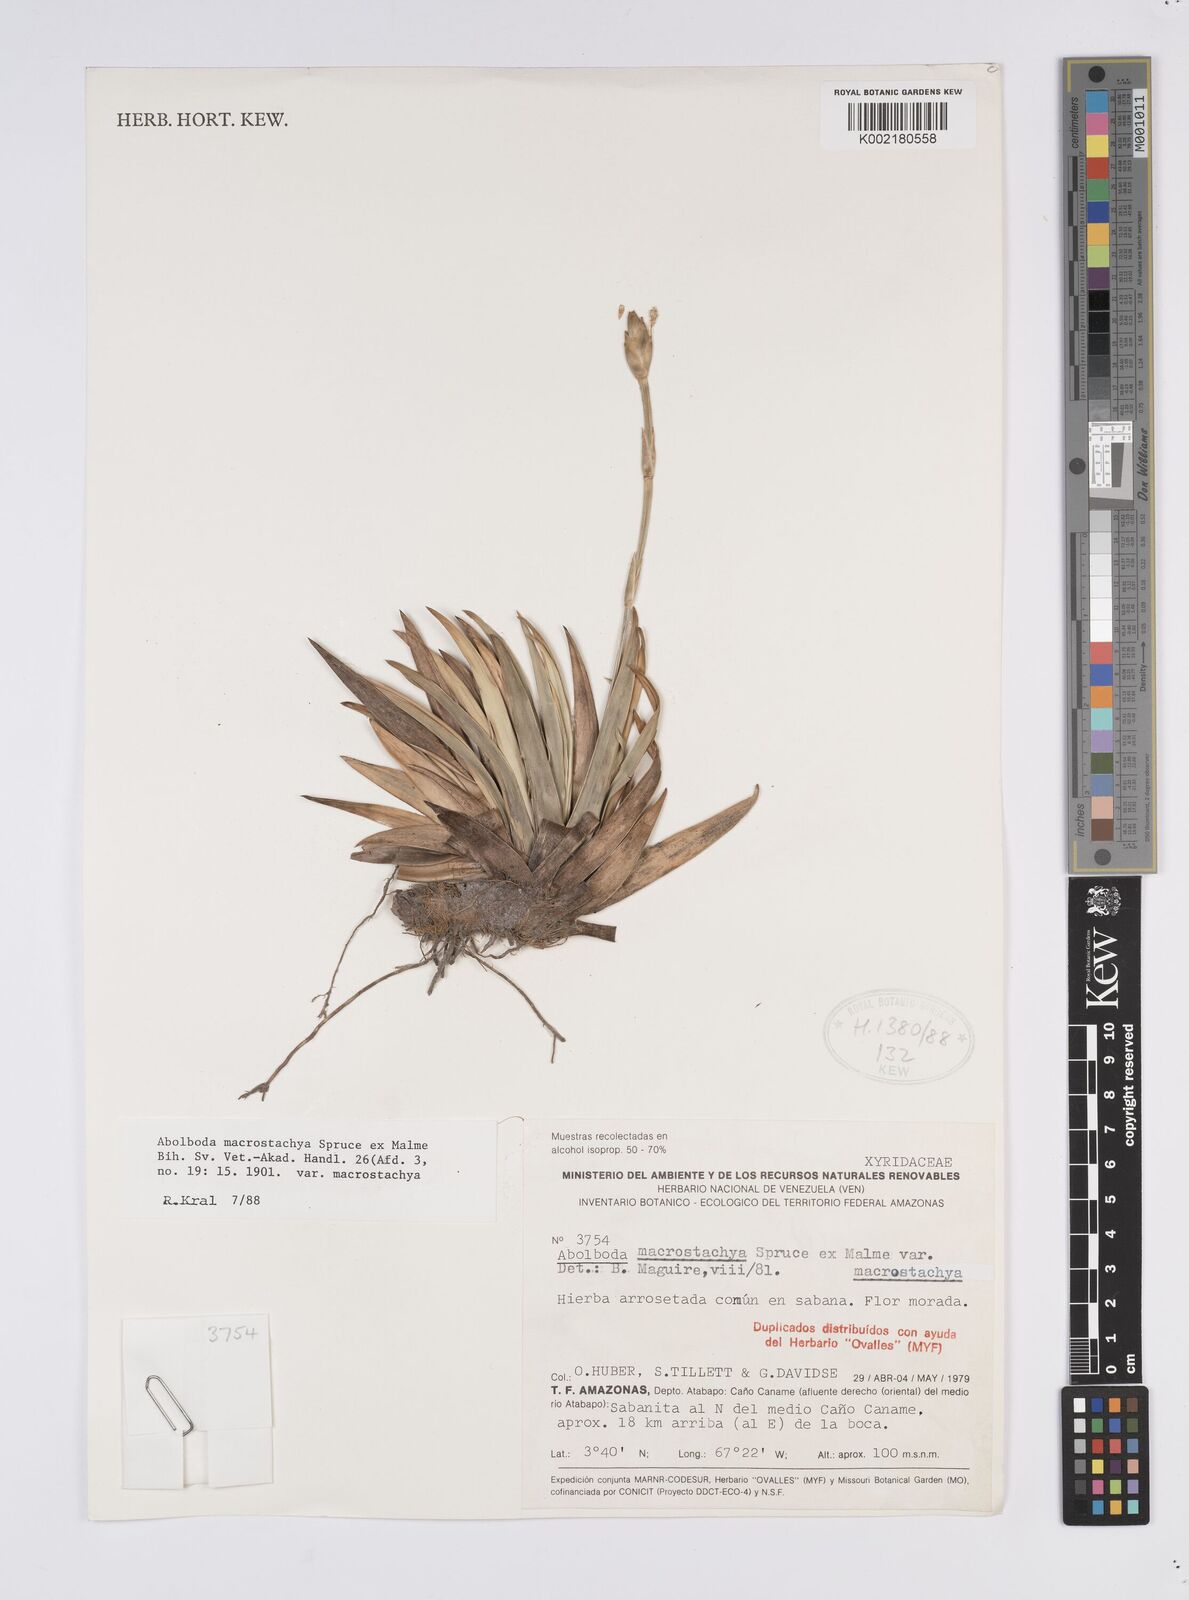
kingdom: Plantae
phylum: Tracheophyta
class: Liliopsida
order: Poales
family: Xyridaceae
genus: Abolboda
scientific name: Abolboda macrostachya
